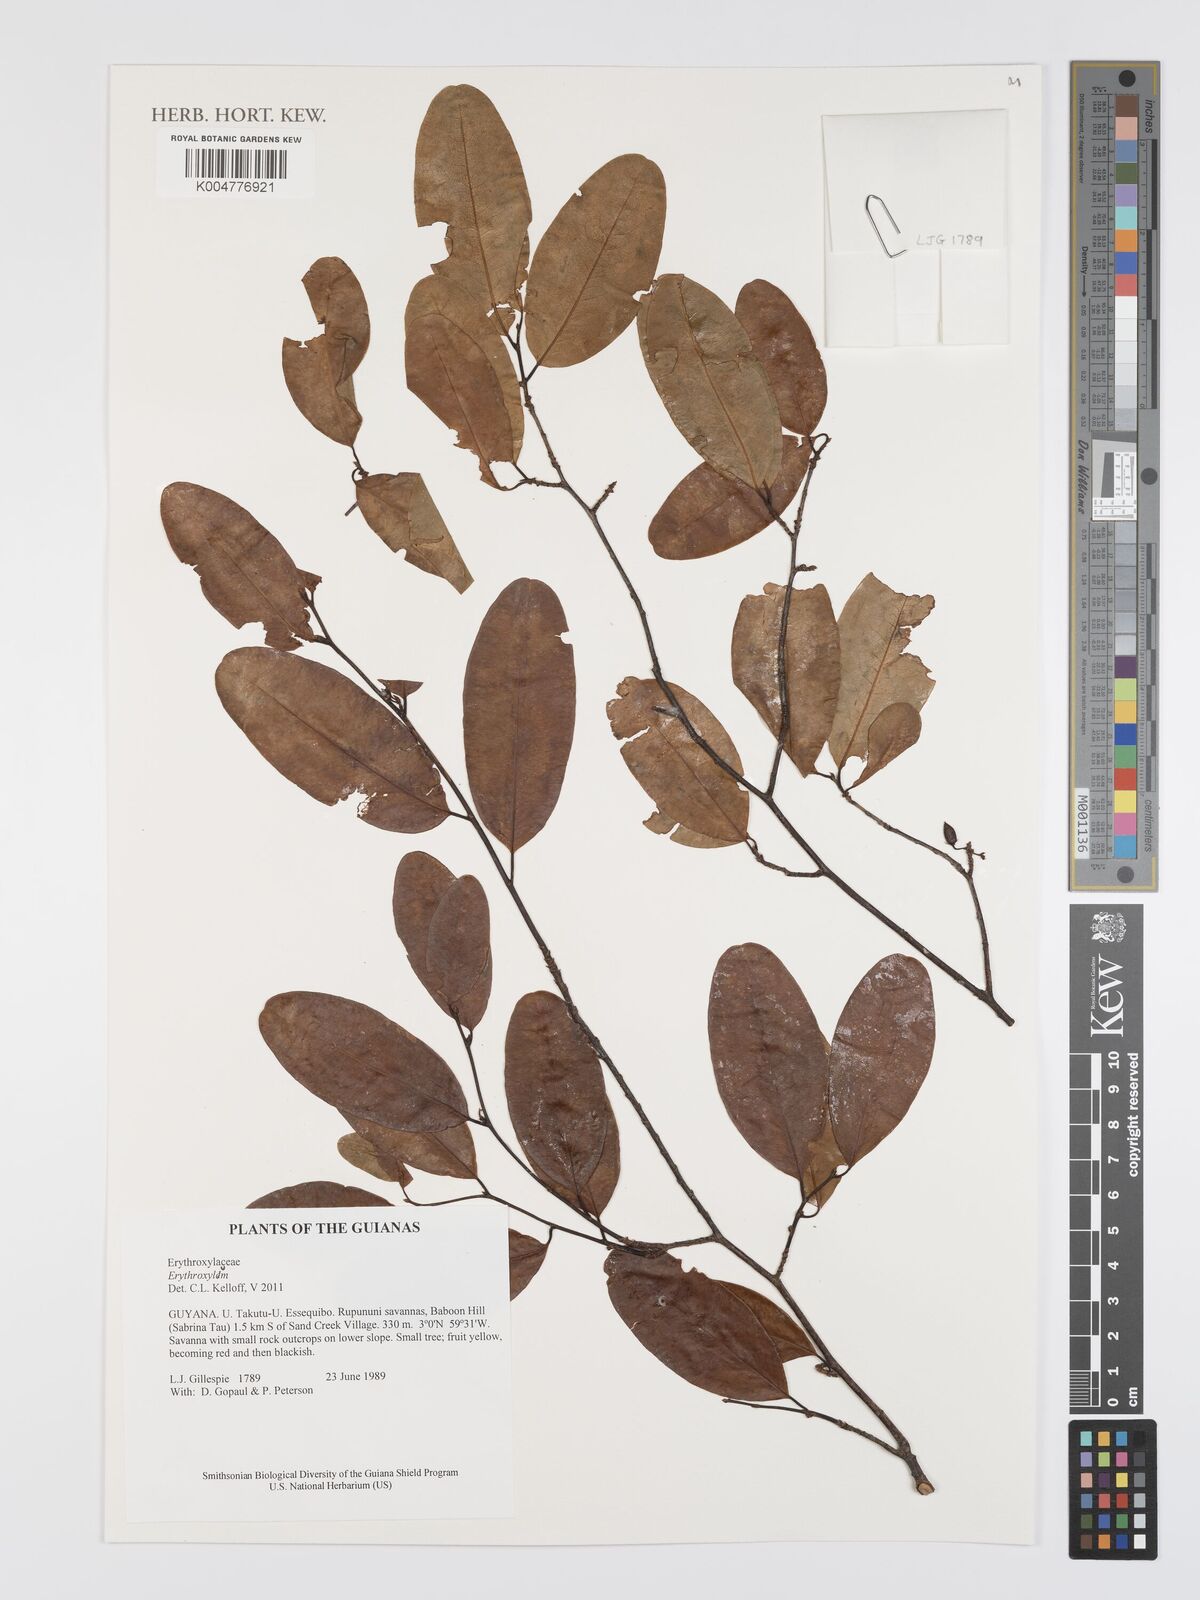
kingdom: Plantae
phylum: Tracheophyta
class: Magnoliopsida
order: Malpighiales
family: Erythroxylaceae
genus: Erythroxylum
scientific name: Erythroxylum
